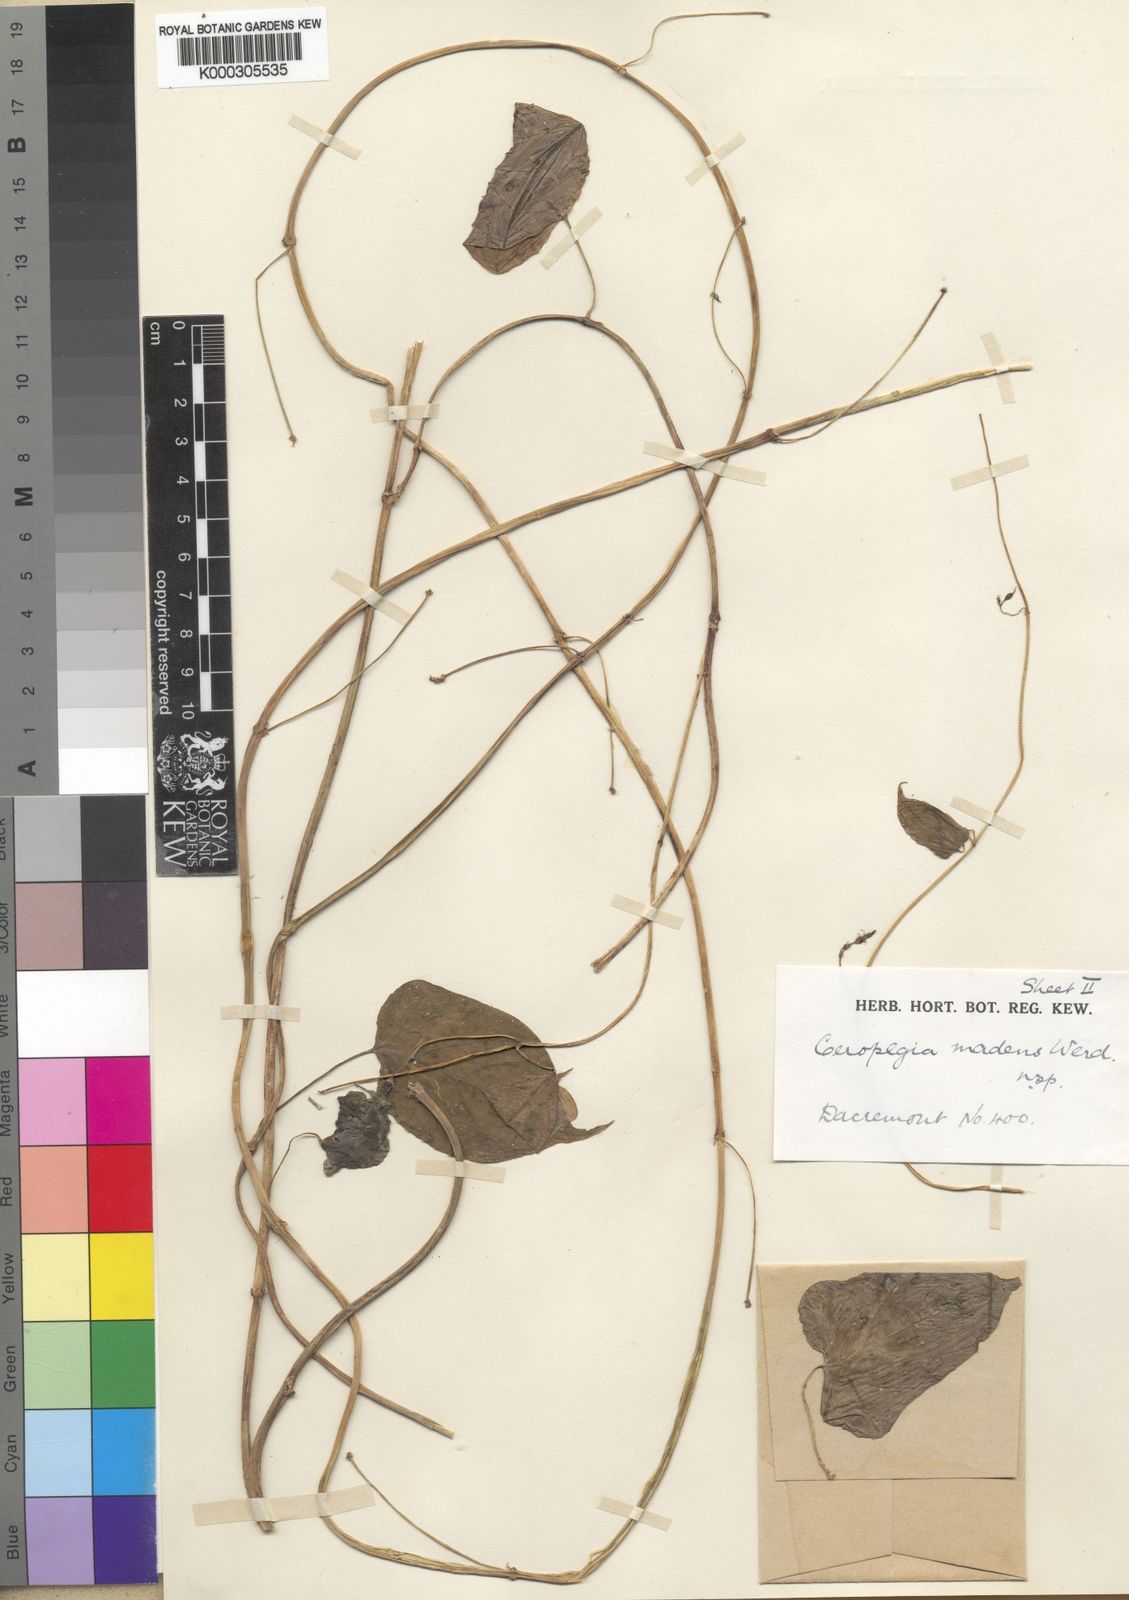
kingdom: Plantae
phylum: Tracheophyta
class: Magnoliopsida
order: Gentianales
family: Apocynaceae
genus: Ceropegia
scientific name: Ceropegia madens
